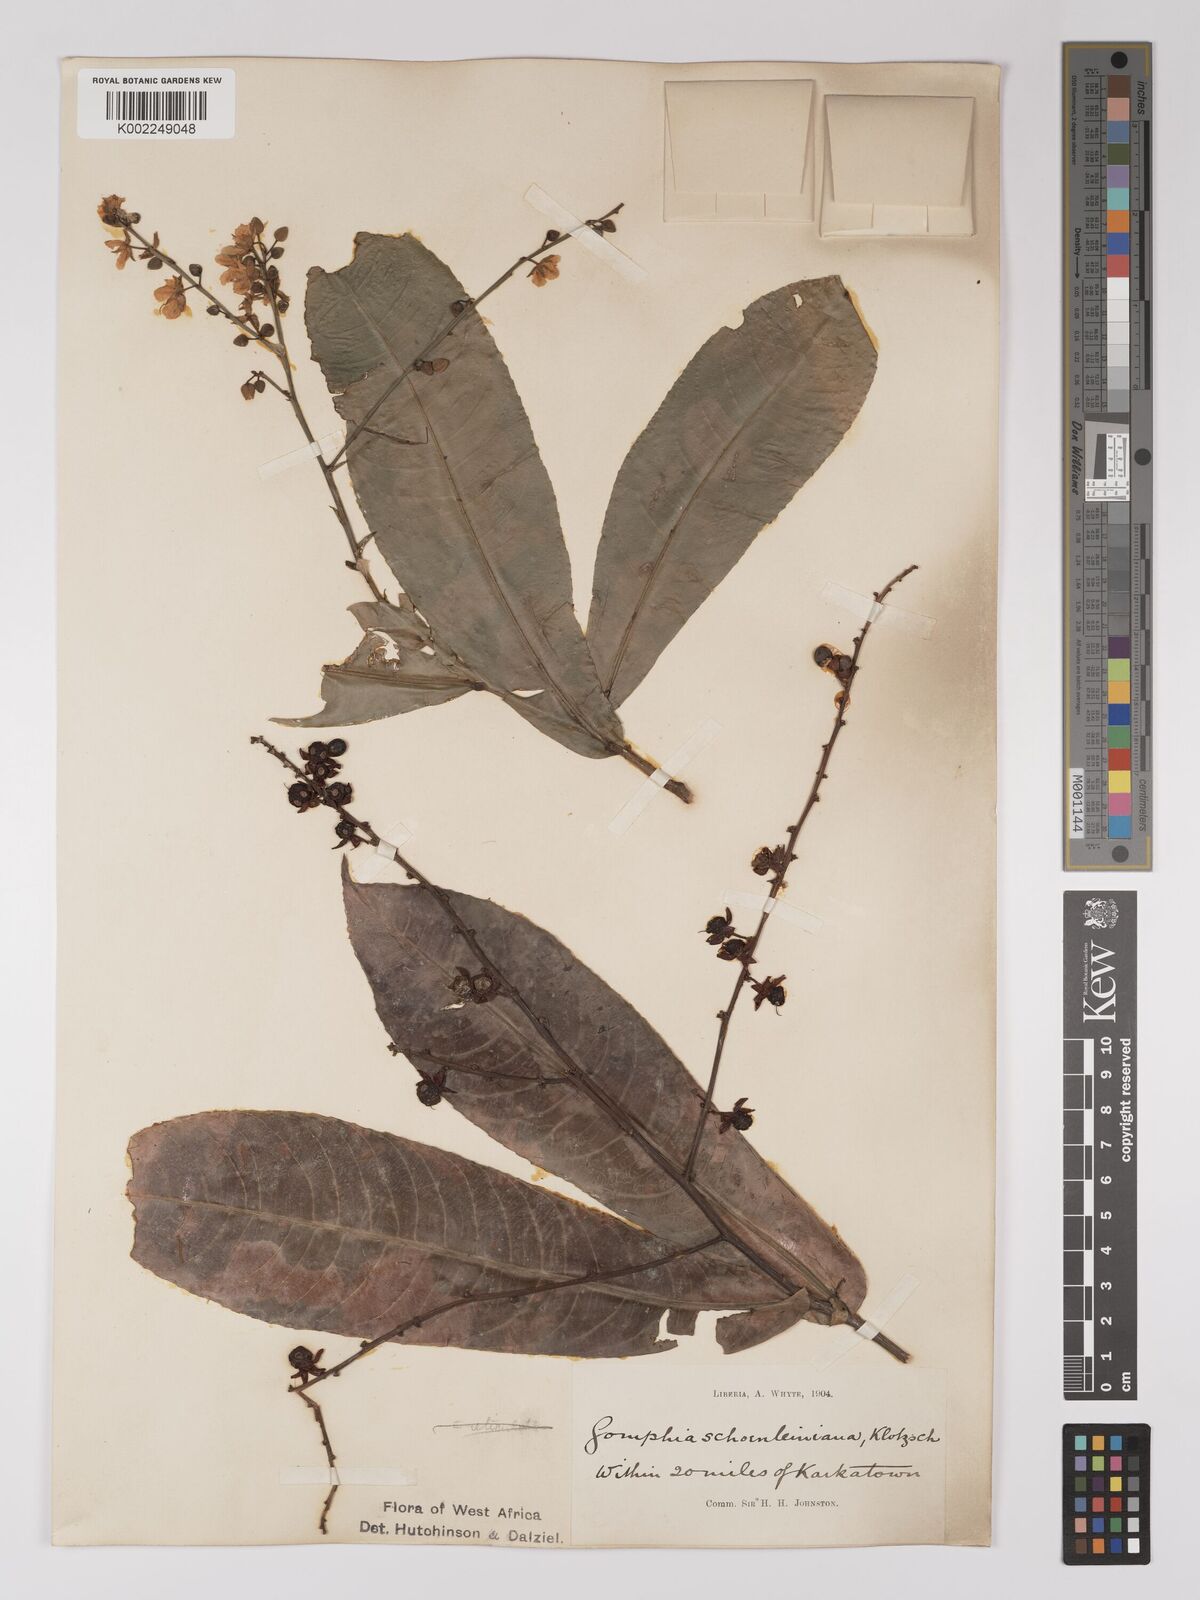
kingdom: Plantae
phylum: Tracheophyta
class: Magnoliopsida
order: Malpighiales
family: Ochnaceae
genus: Campylospermum
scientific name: Campylospermum schoenleinianum
